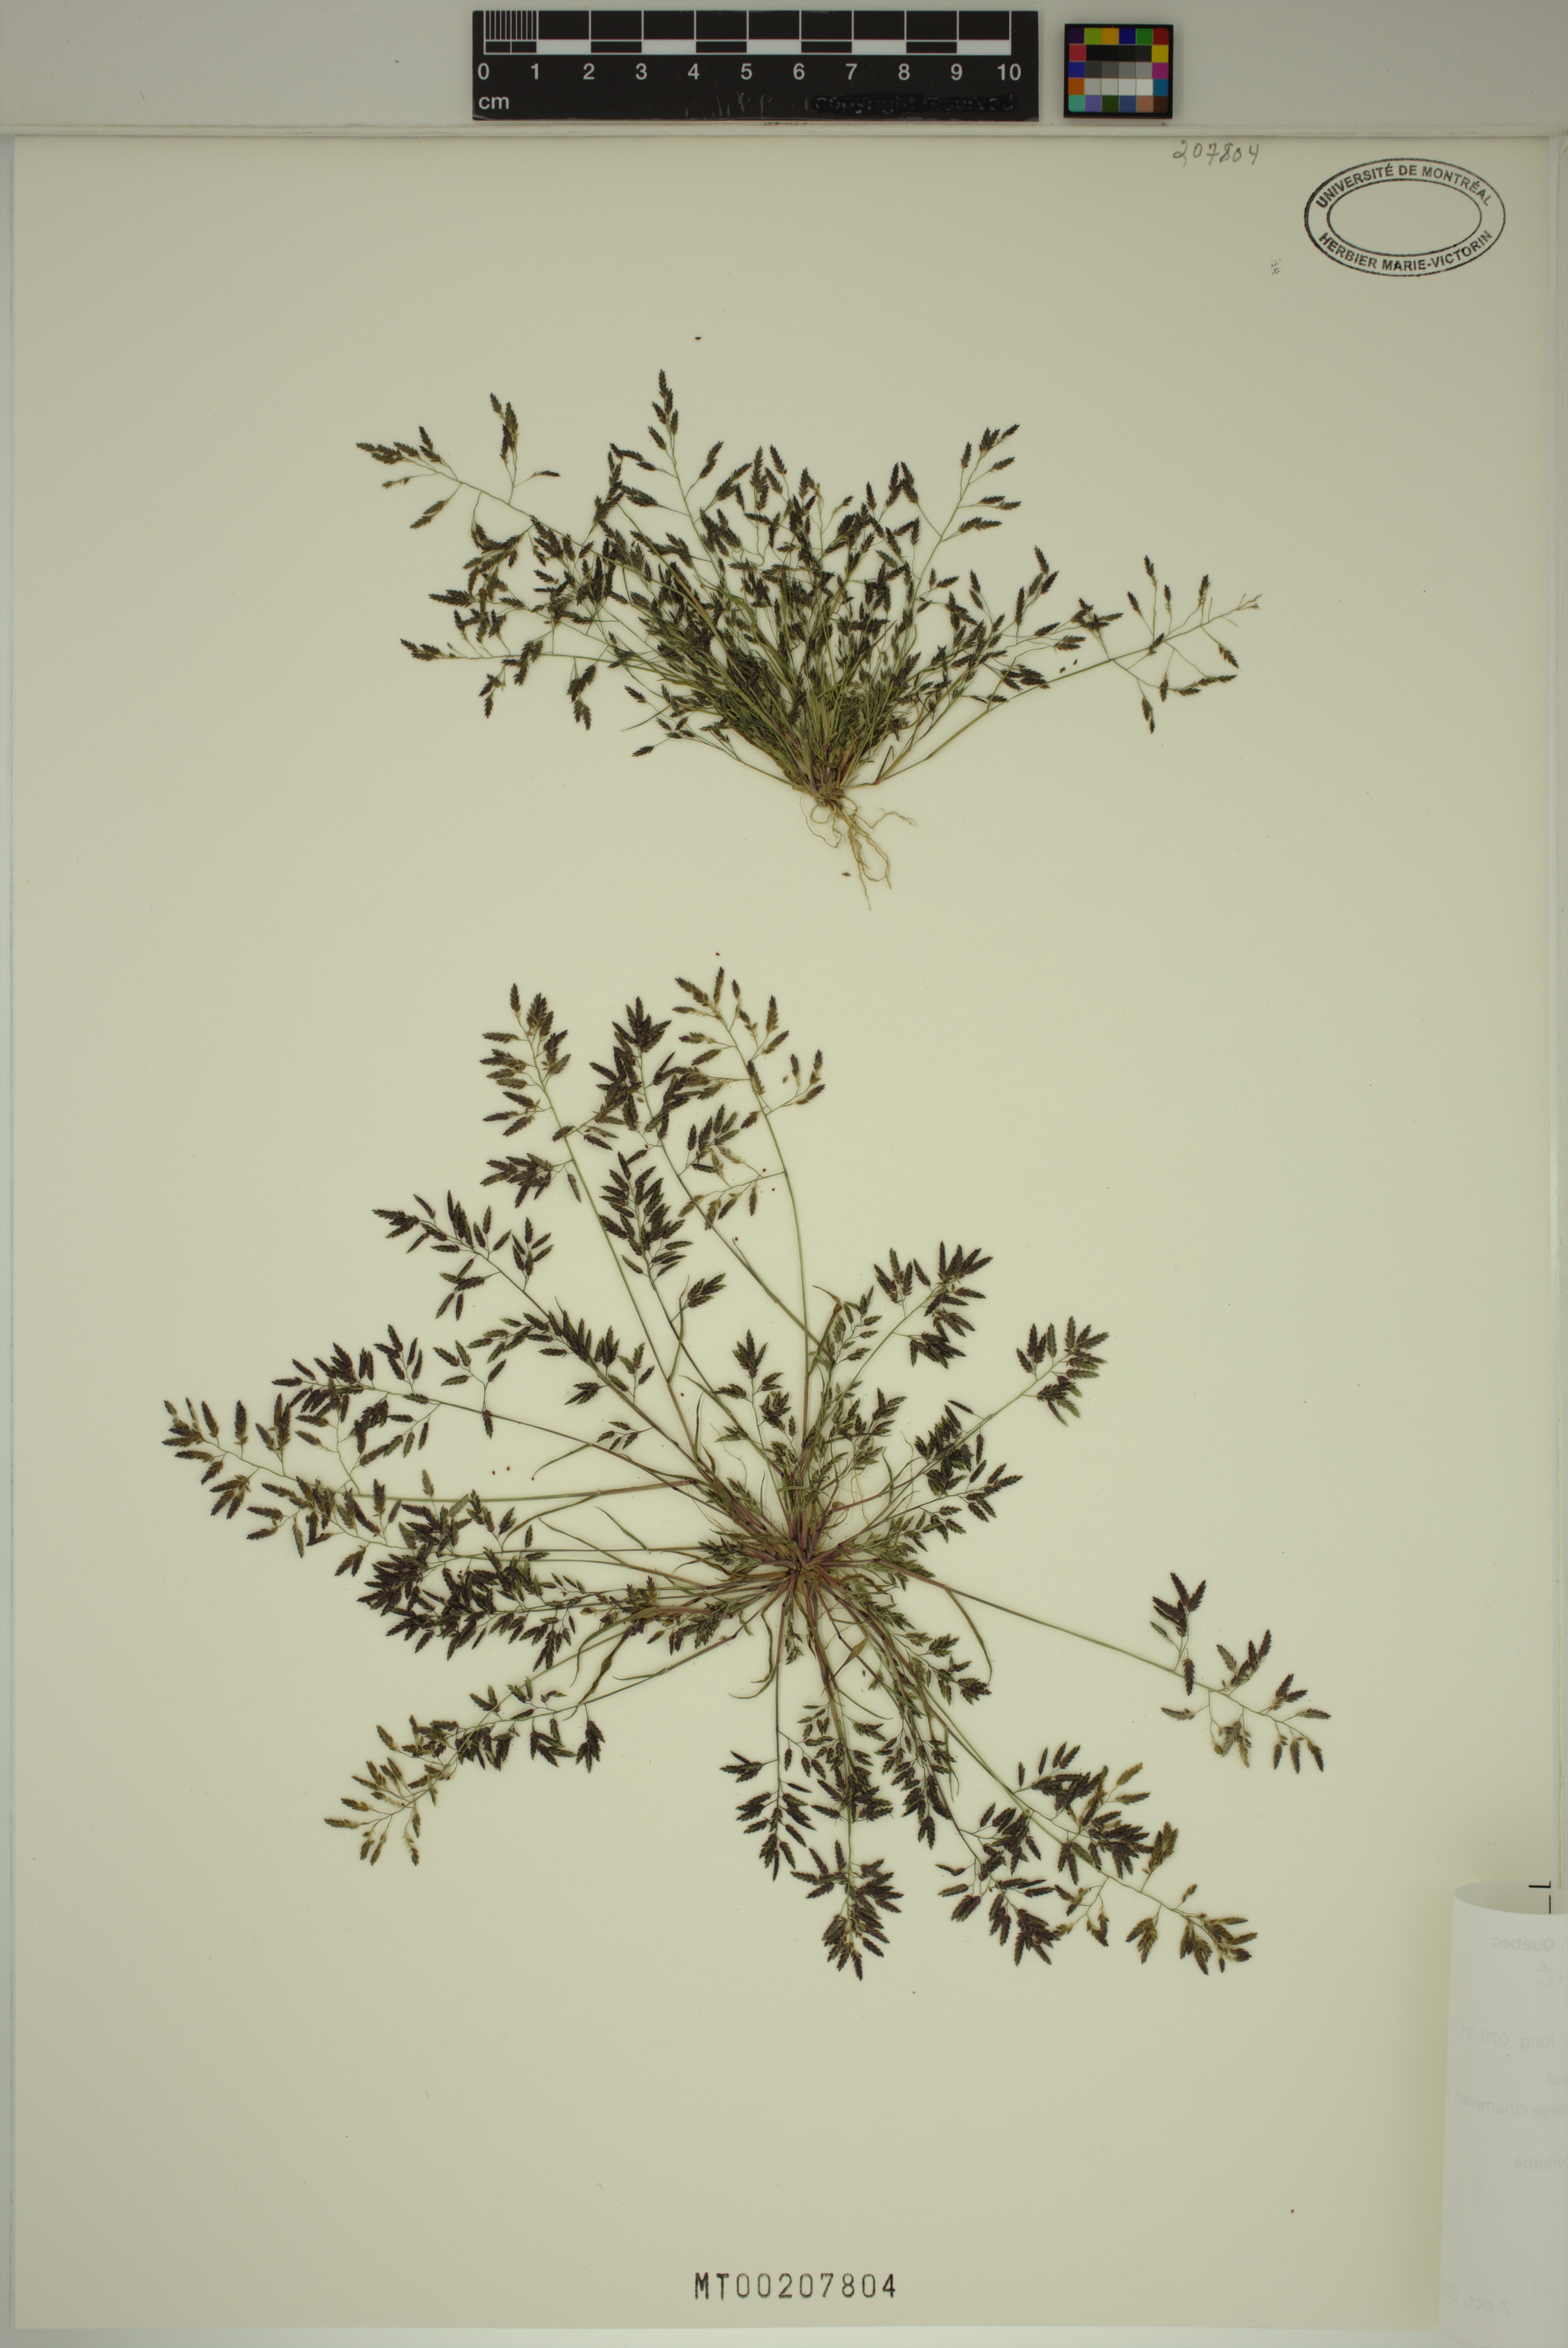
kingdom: Plantae
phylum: Tracheophyta
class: Liliopsida
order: Poales
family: Poaceae
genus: Eragrostis
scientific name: Eragrostis minor
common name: Small love-grass
